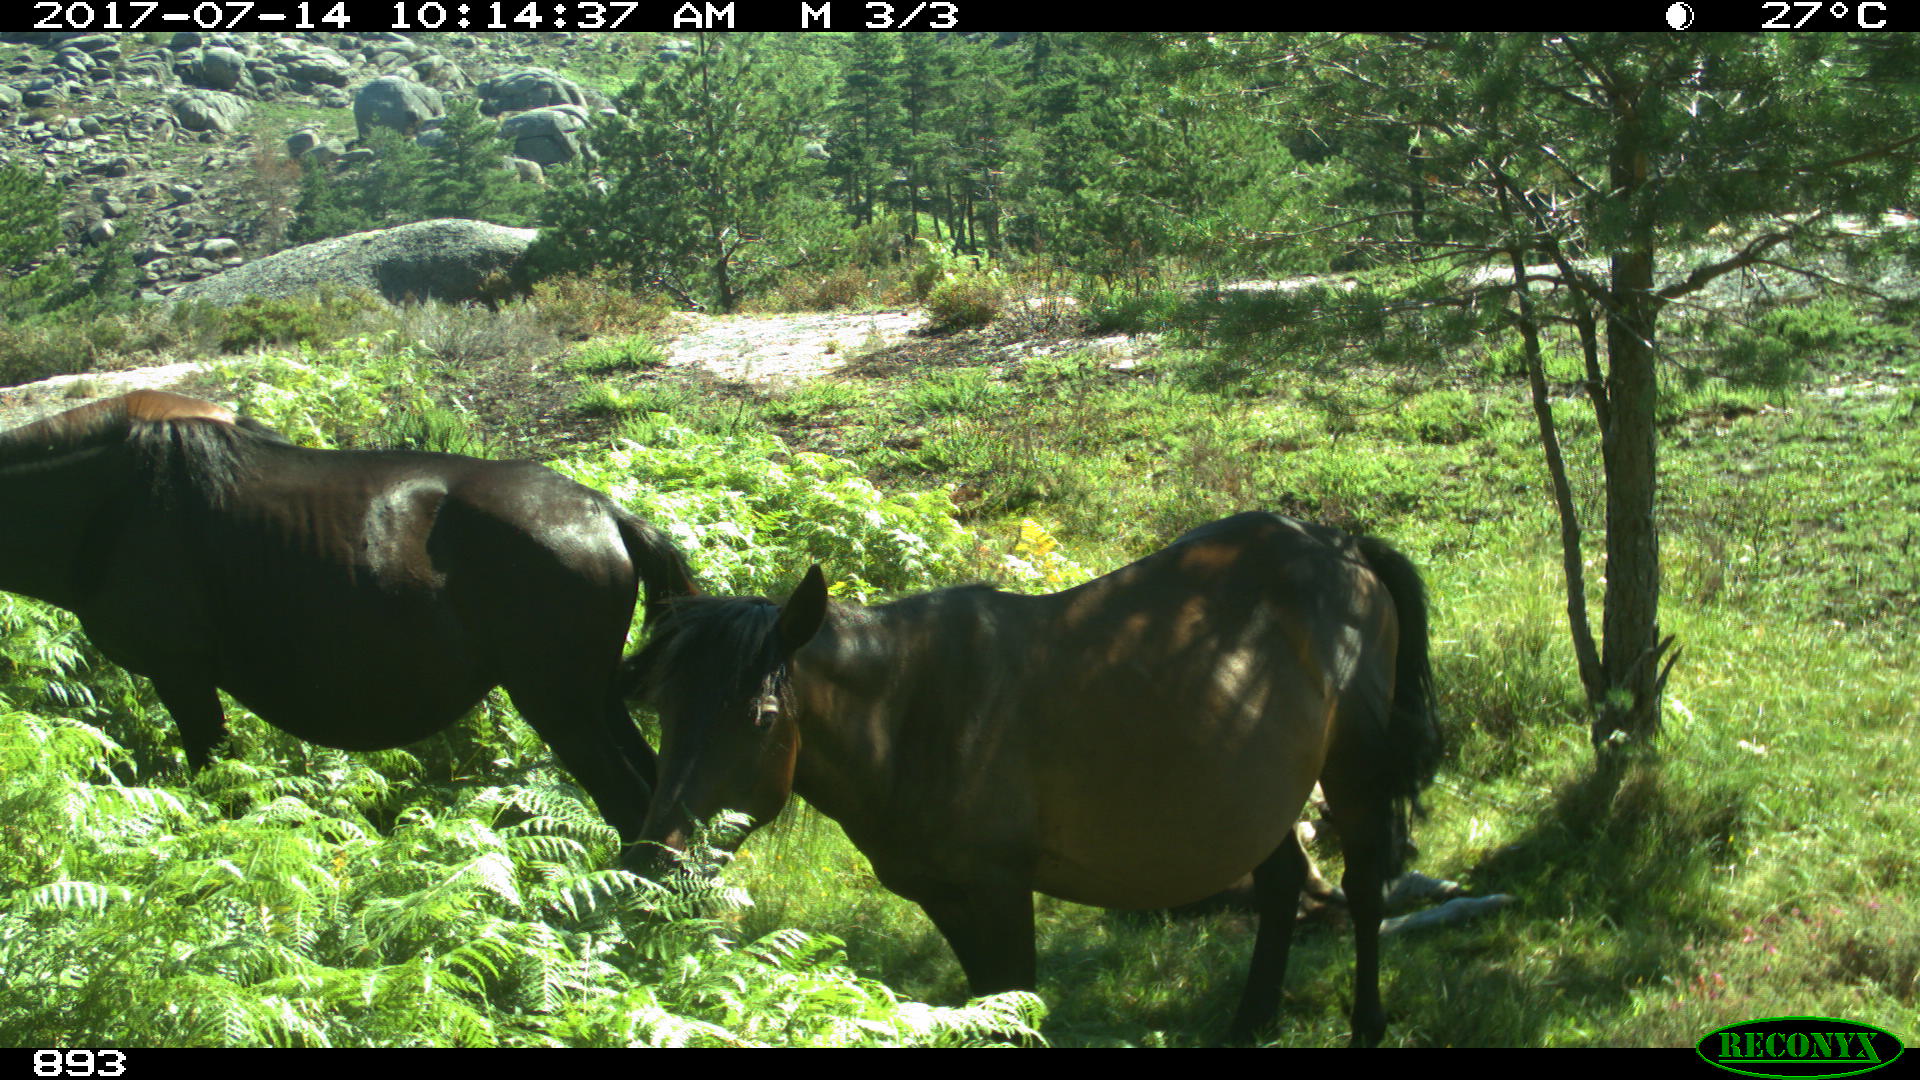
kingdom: Animalia
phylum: Chordata
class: Mammalia
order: Perissodactyla
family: Equidae
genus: Equus
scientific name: Equus caballus
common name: Horse
